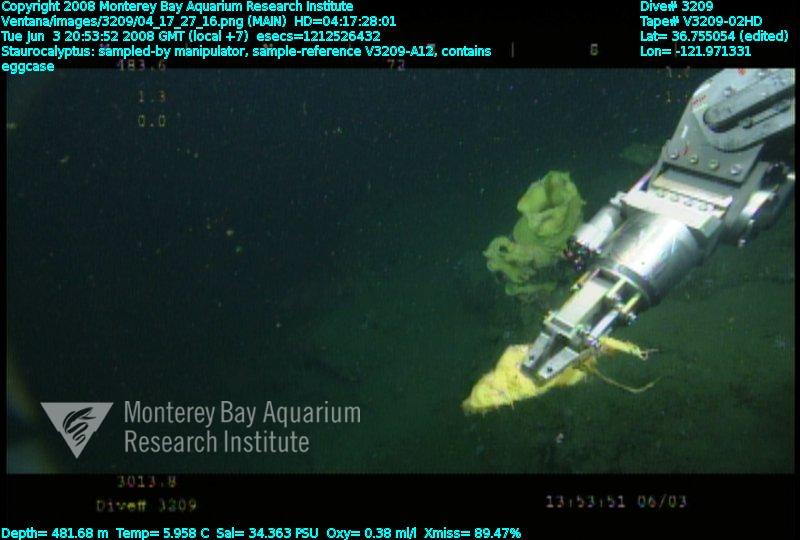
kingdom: Animalia
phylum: Porifera
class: Hexactinellida
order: Lyssacinosida
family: Rossellidae
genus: Staurocalyptus
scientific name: Staurocalyptus
